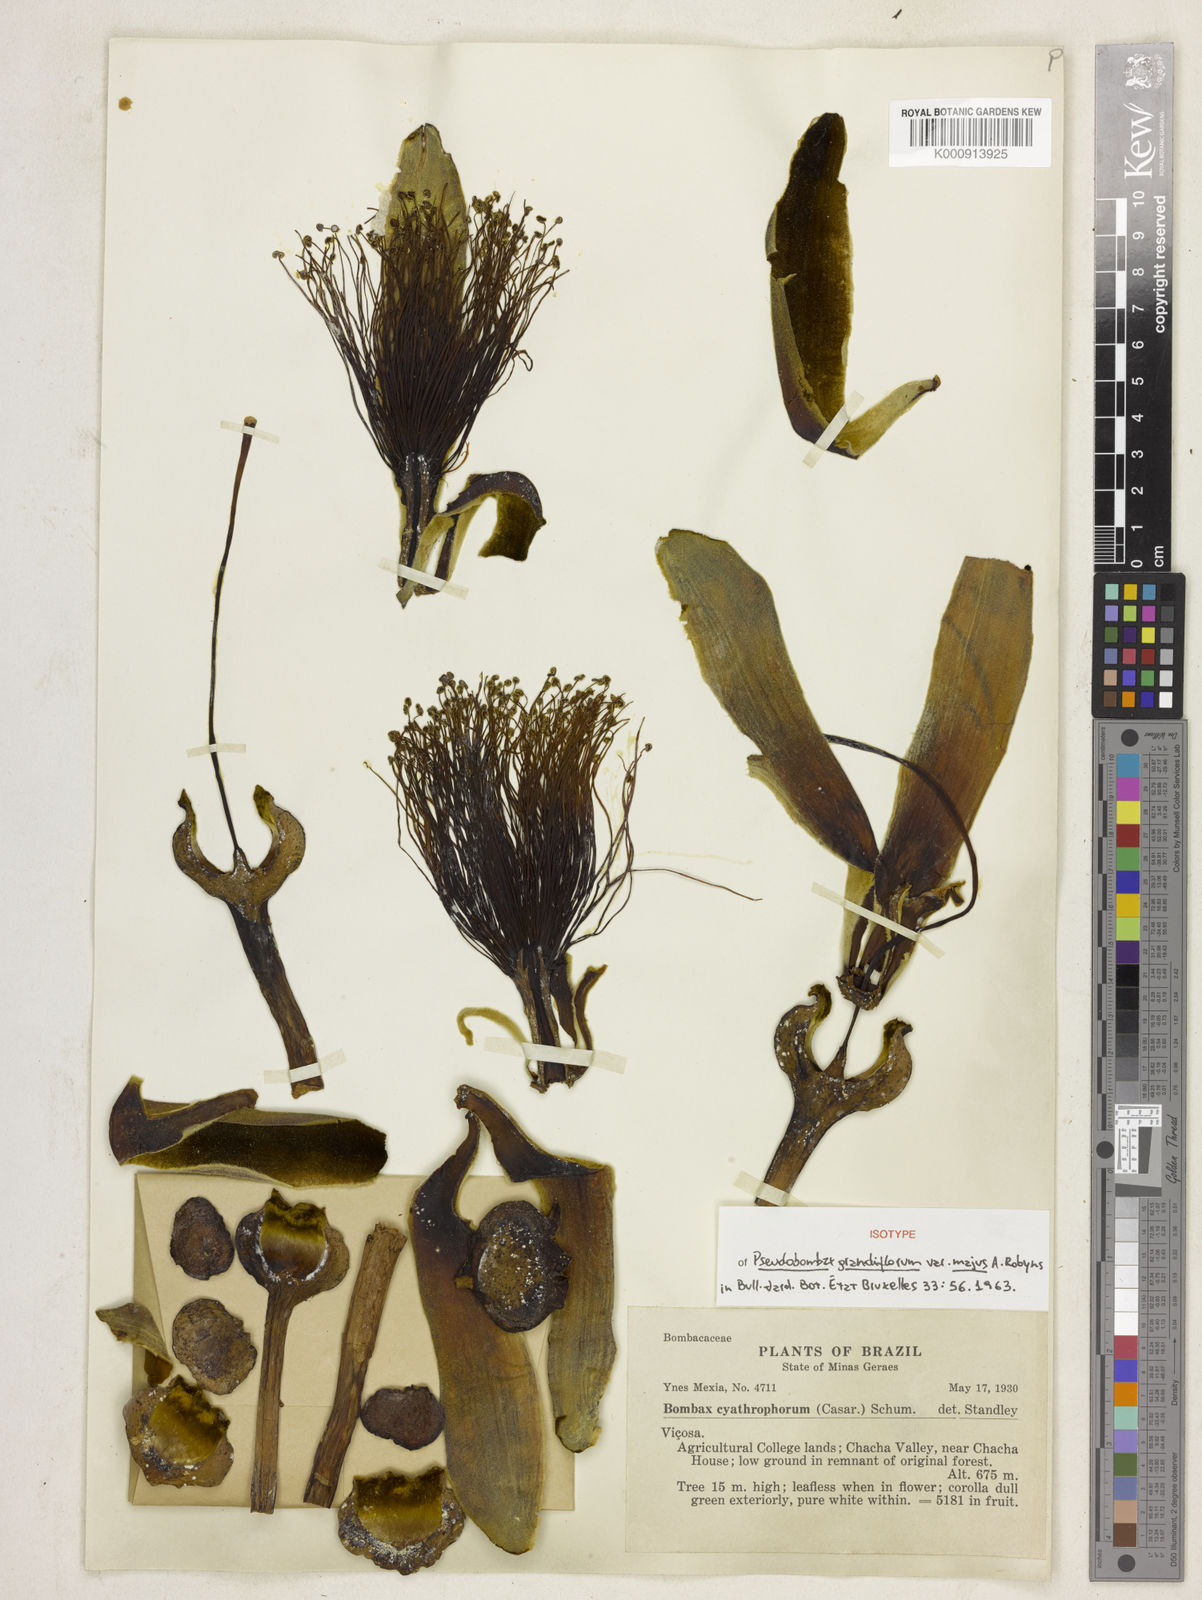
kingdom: Plantae
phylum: Tracheophyta
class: Magnoliopsida
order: Malvales
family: Malvaceae
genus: Pseudobombax
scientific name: Pseudobombax grandiflorum
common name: Brazilian shaving-brush-tree
